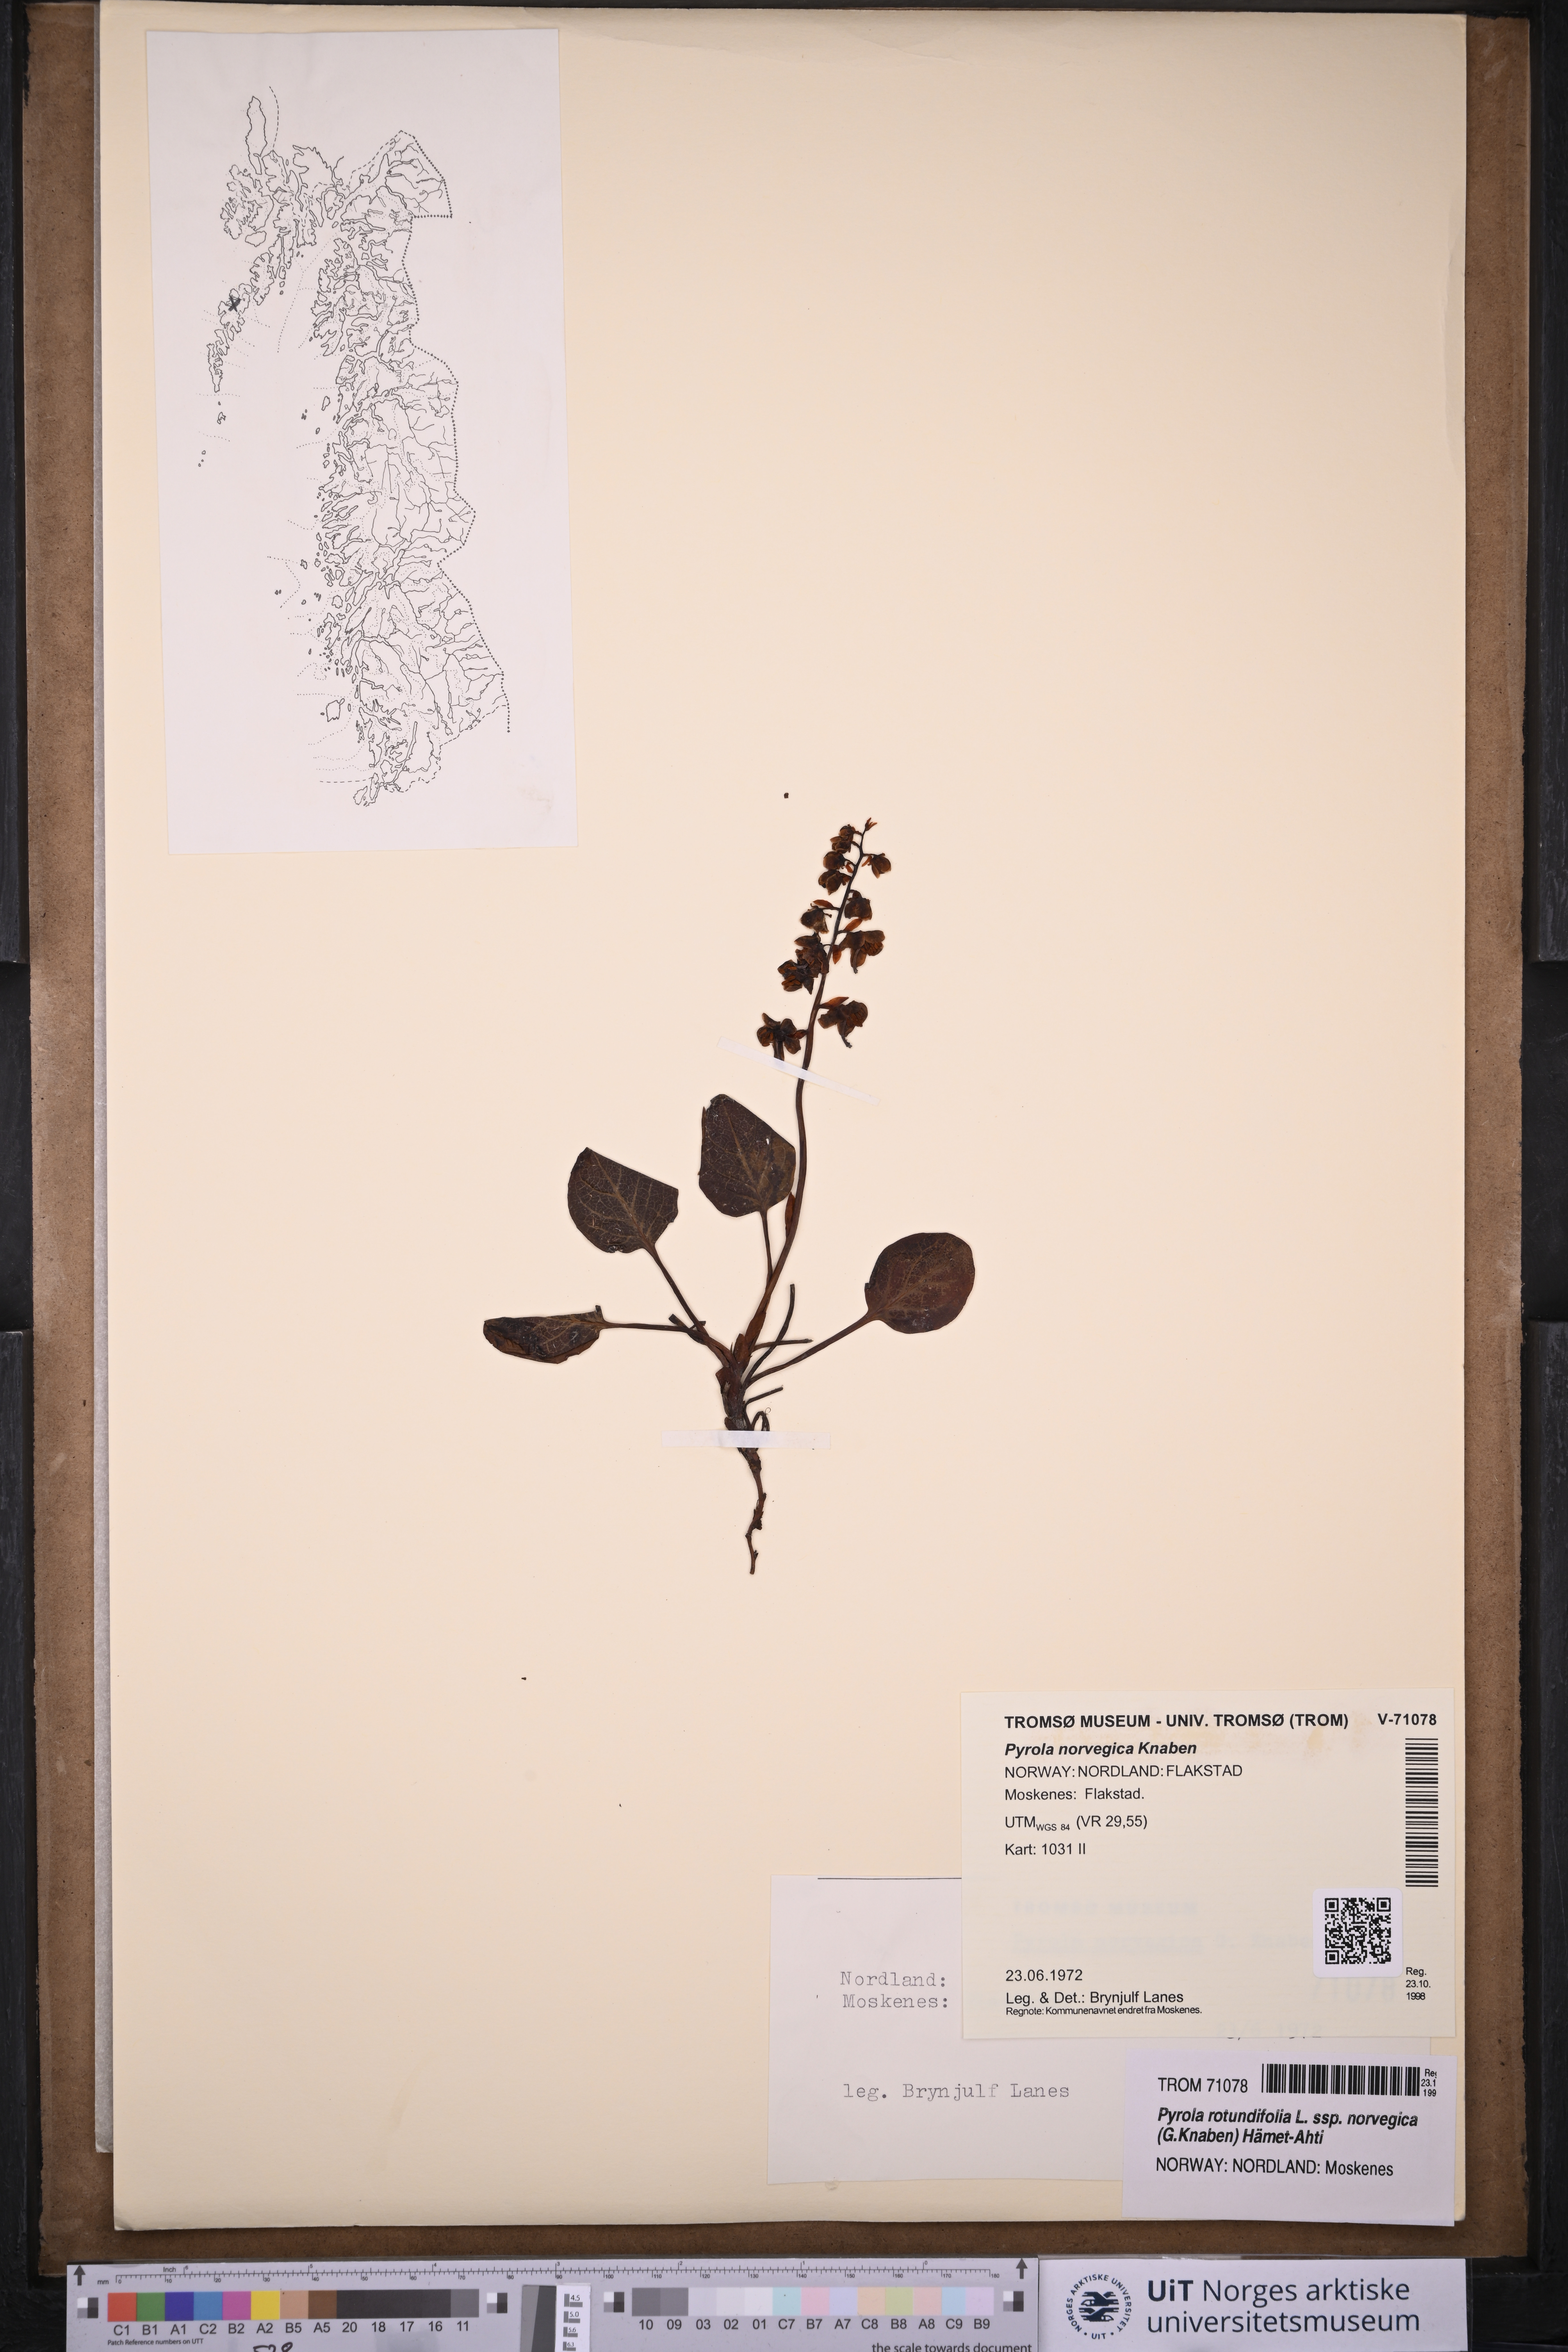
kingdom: Plantae
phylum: Tracheophyta
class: Magnoliopsida
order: Ericales
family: Ericaceae
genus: Pyrola
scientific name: Pyrola rotundifolia
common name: Round-leaved wintergreen
